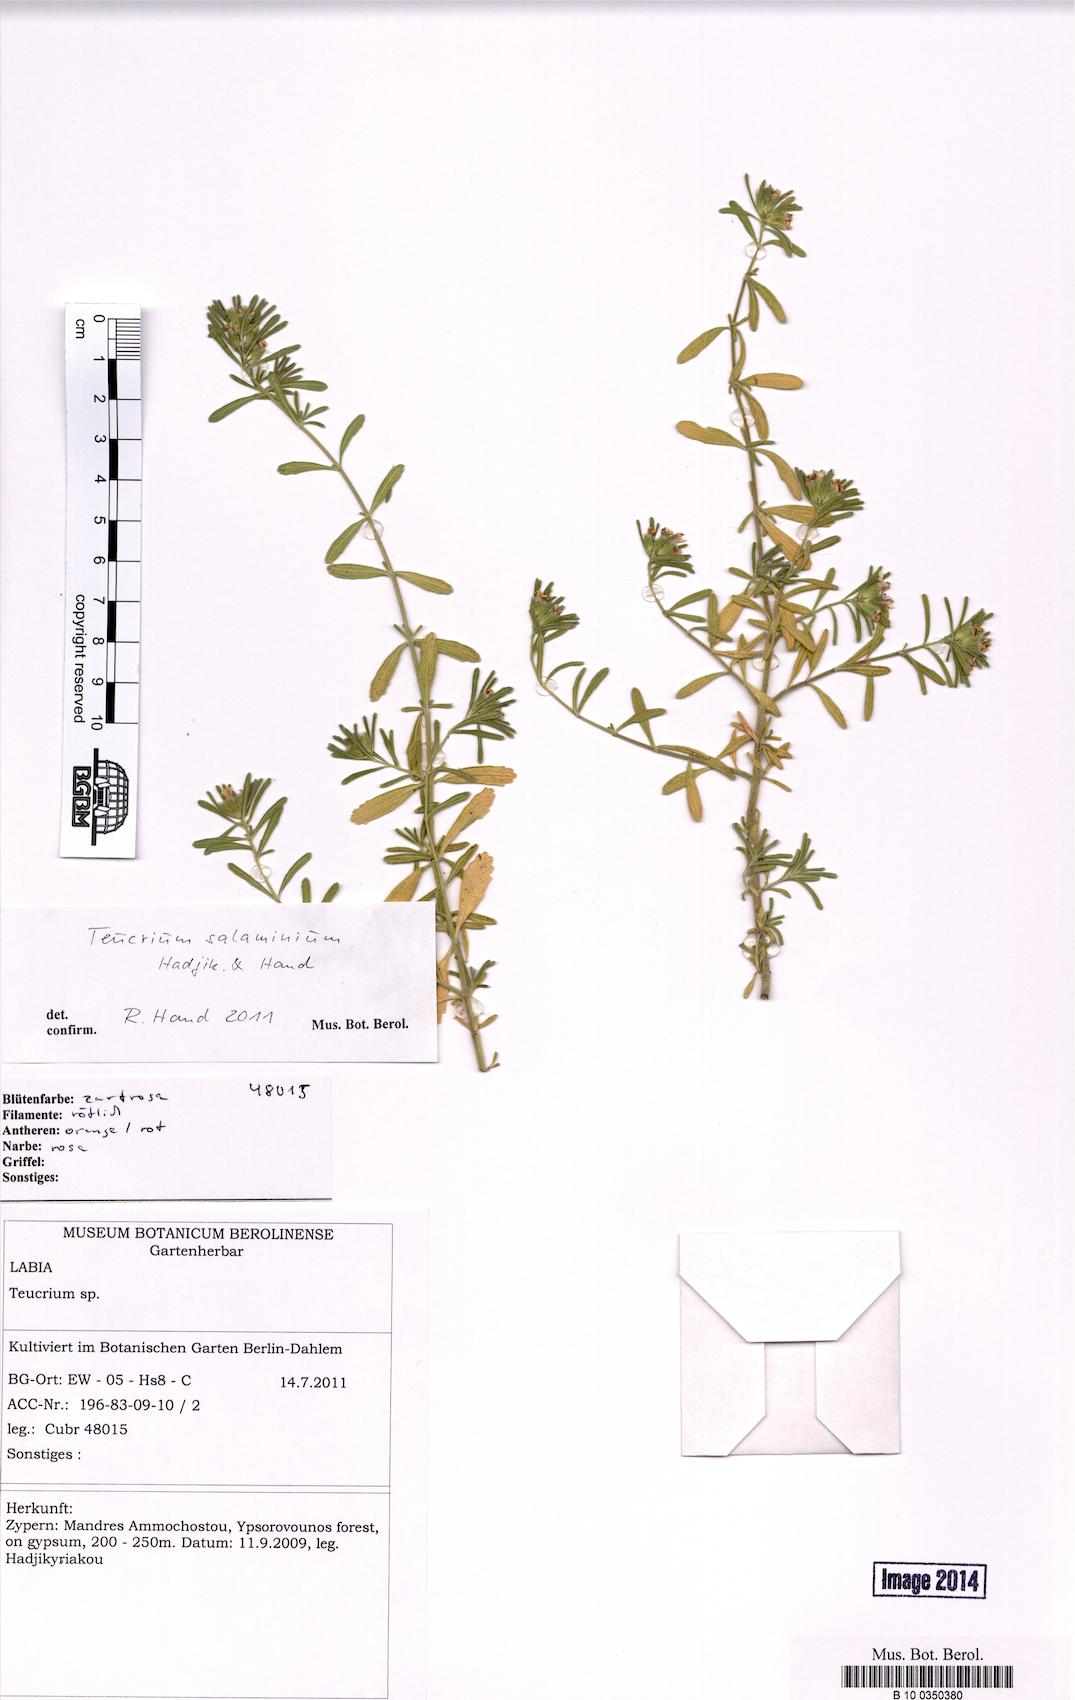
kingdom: Plantae
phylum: Tracheophyta
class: Magnoliopsida
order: Lamiales
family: Lamiaceae
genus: Teucrium
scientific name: Teucrium salaminium
